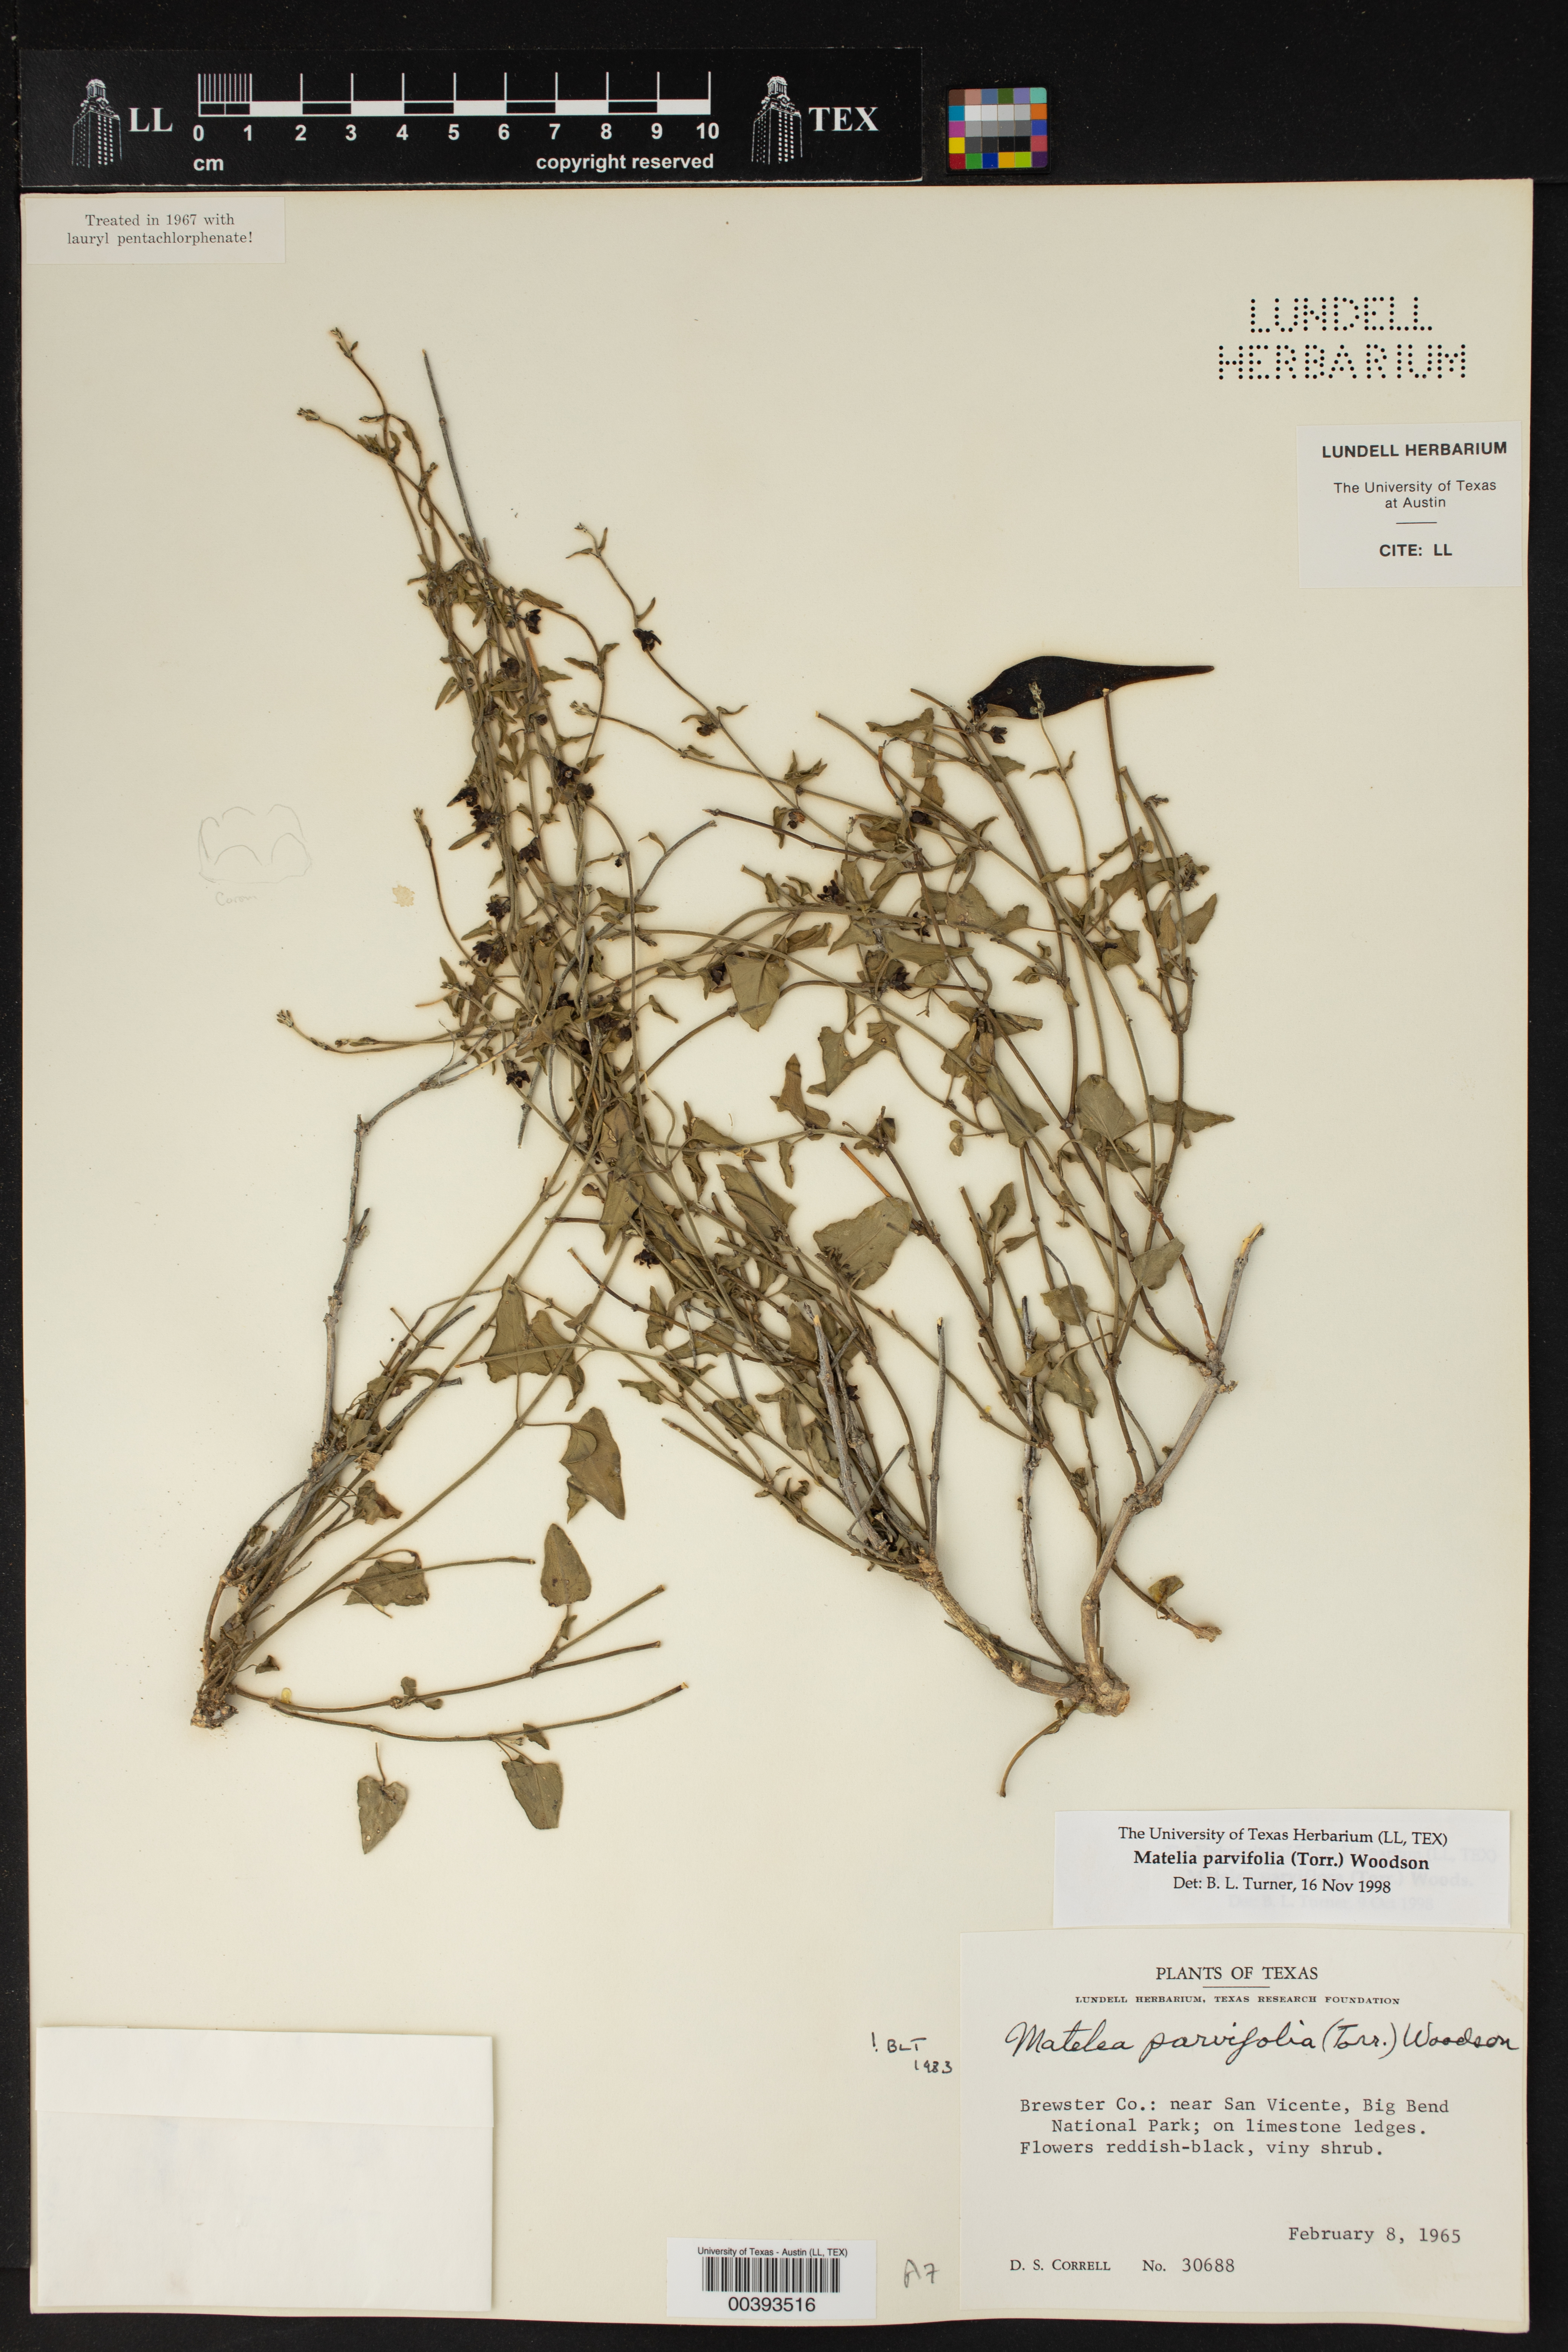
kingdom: Plantae
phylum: Tracheophyta
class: Magnoliopsida
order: Gentianales
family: Apocynaceae
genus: Matelea
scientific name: Matelea parvifolia
